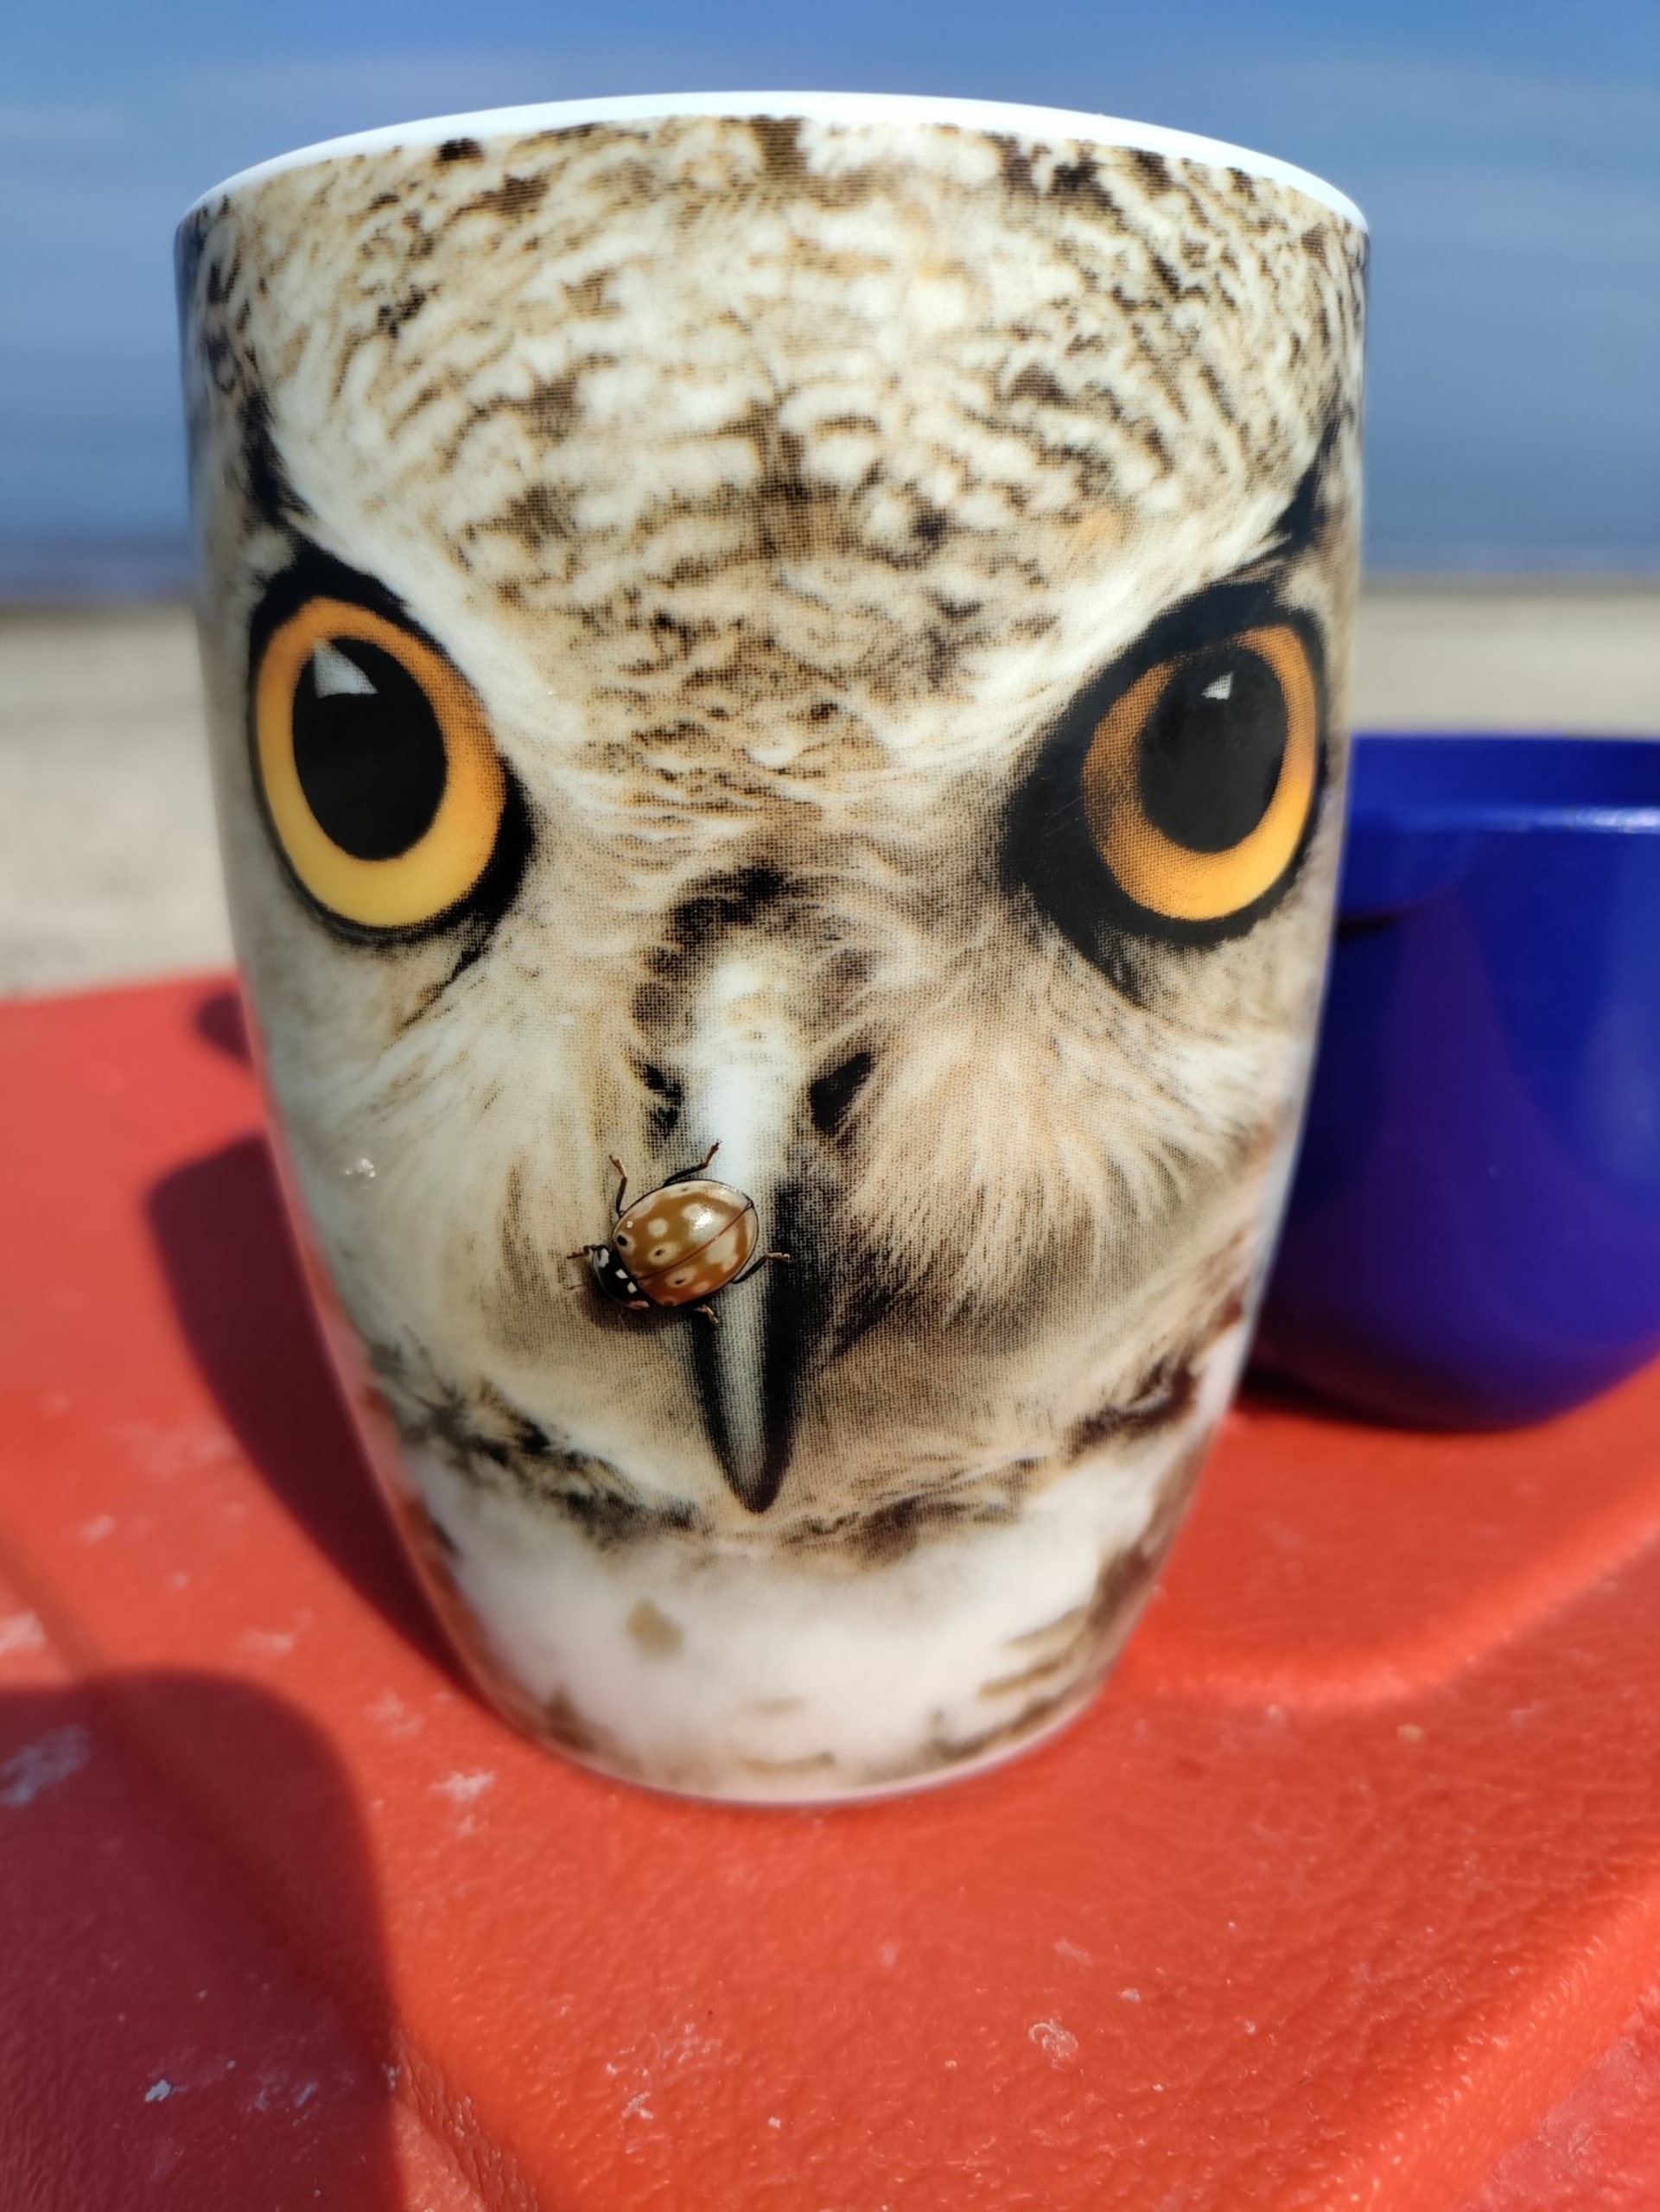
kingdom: Animalia
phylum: Arthropoda
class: Insecta
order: Coleoptera
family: Coccinellidae
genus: Anatis
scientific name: Anatis ocellata
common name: Øjeplettet mariehøne
